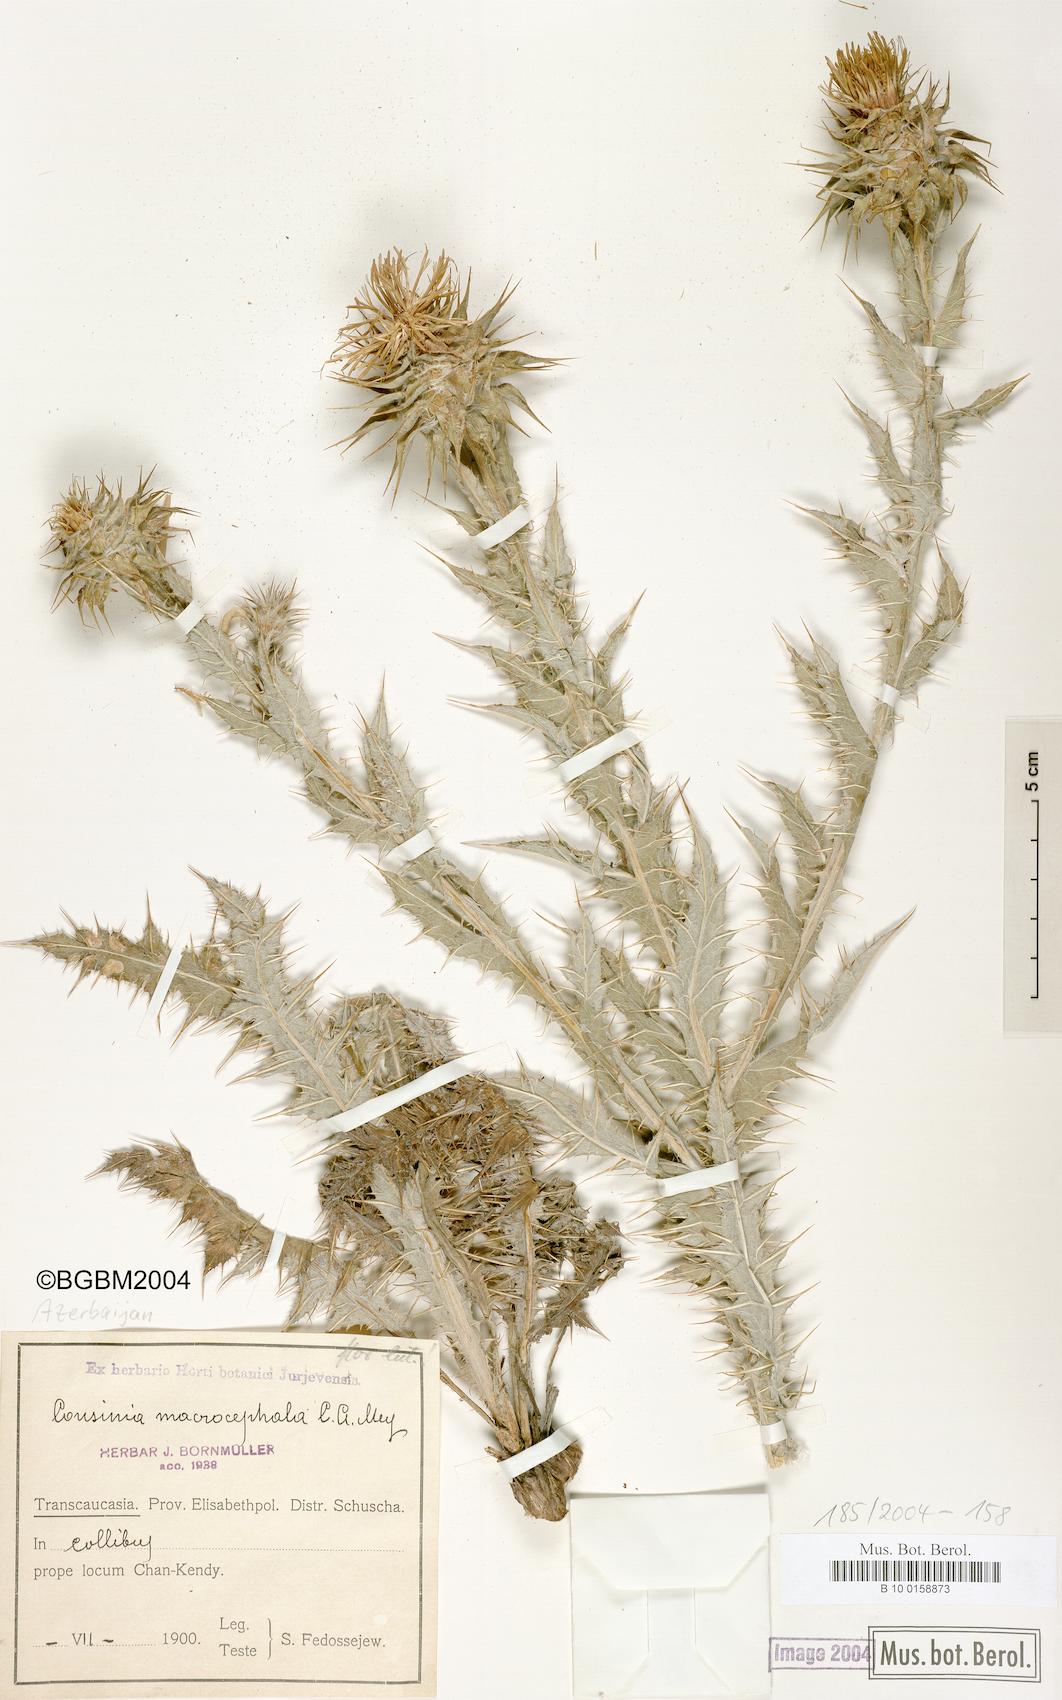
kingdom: Plantae
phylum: Tracheophyta
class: Magnoliopsida
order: Asterales
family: Asteraceae
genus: Cousinia
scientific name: Cousinia macrocephala
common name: Macrocephalous cousinia
